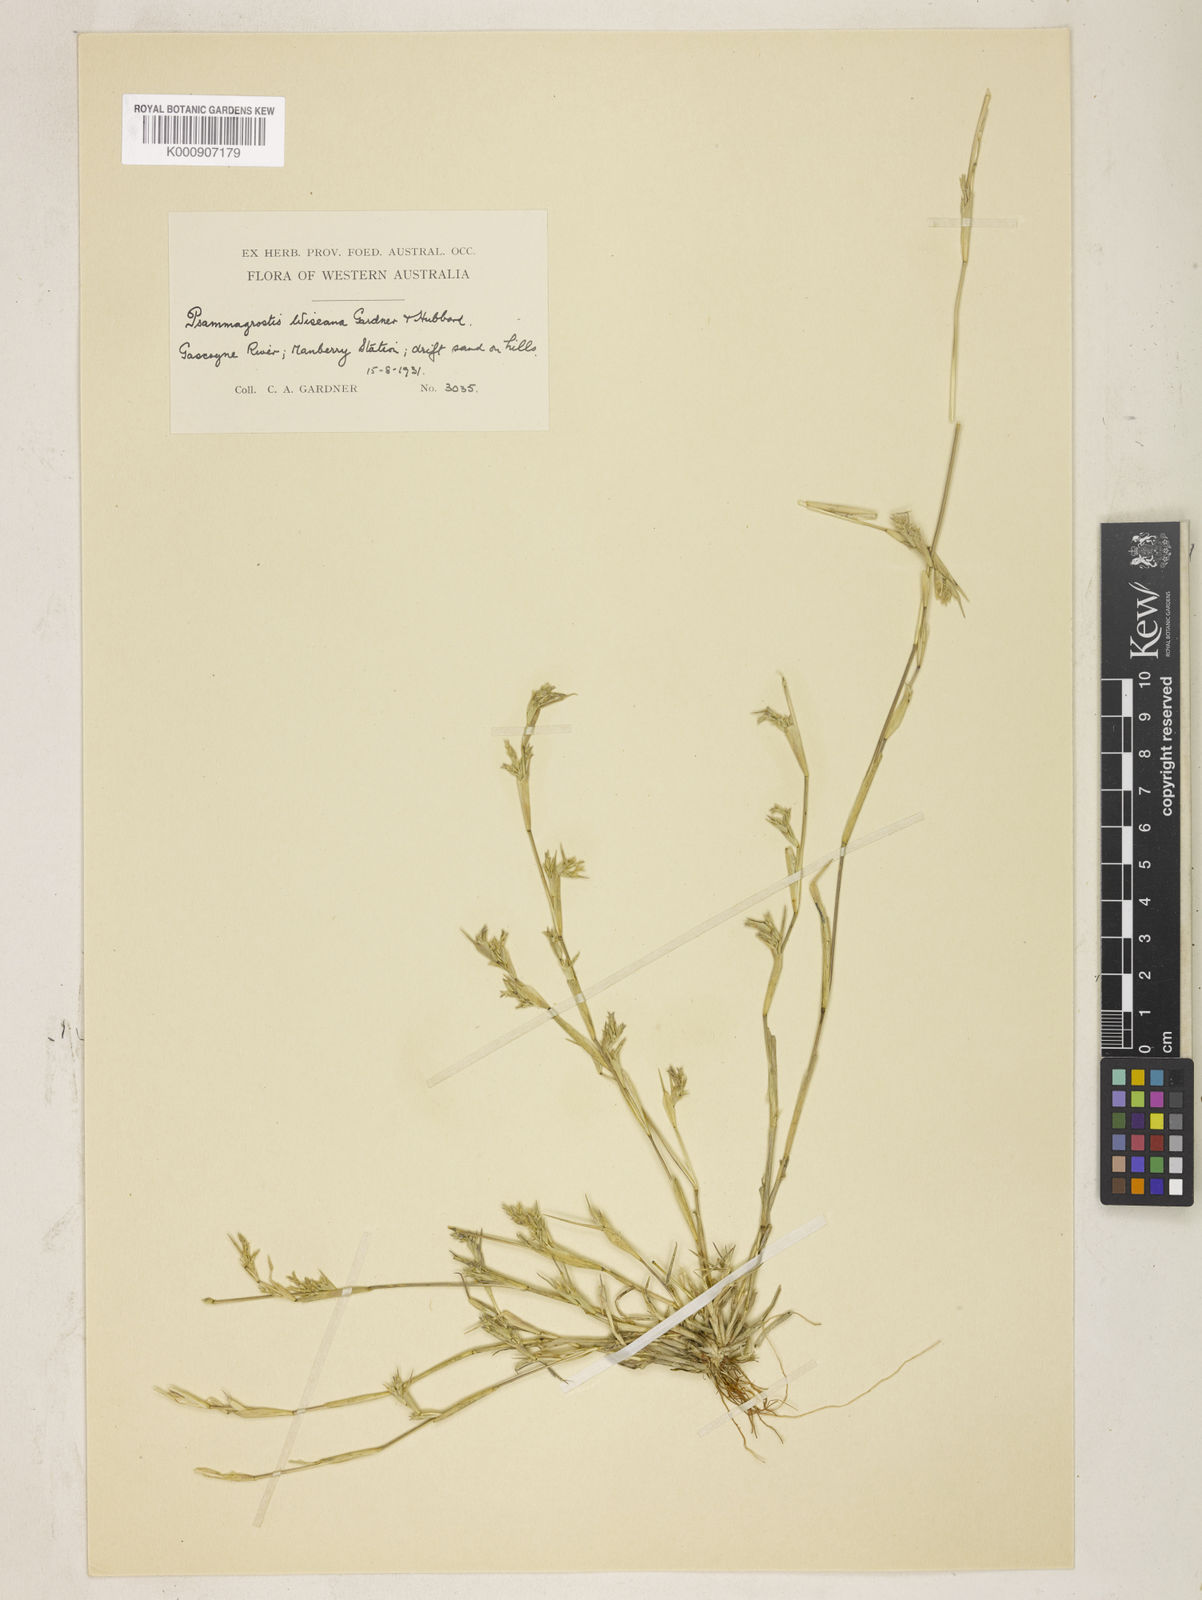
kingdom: Plantae
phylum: Tracheophyta
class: Liliopsida
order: Poales
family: Poaceae
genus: Eragrostis
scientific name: Eragrostis wiseana
